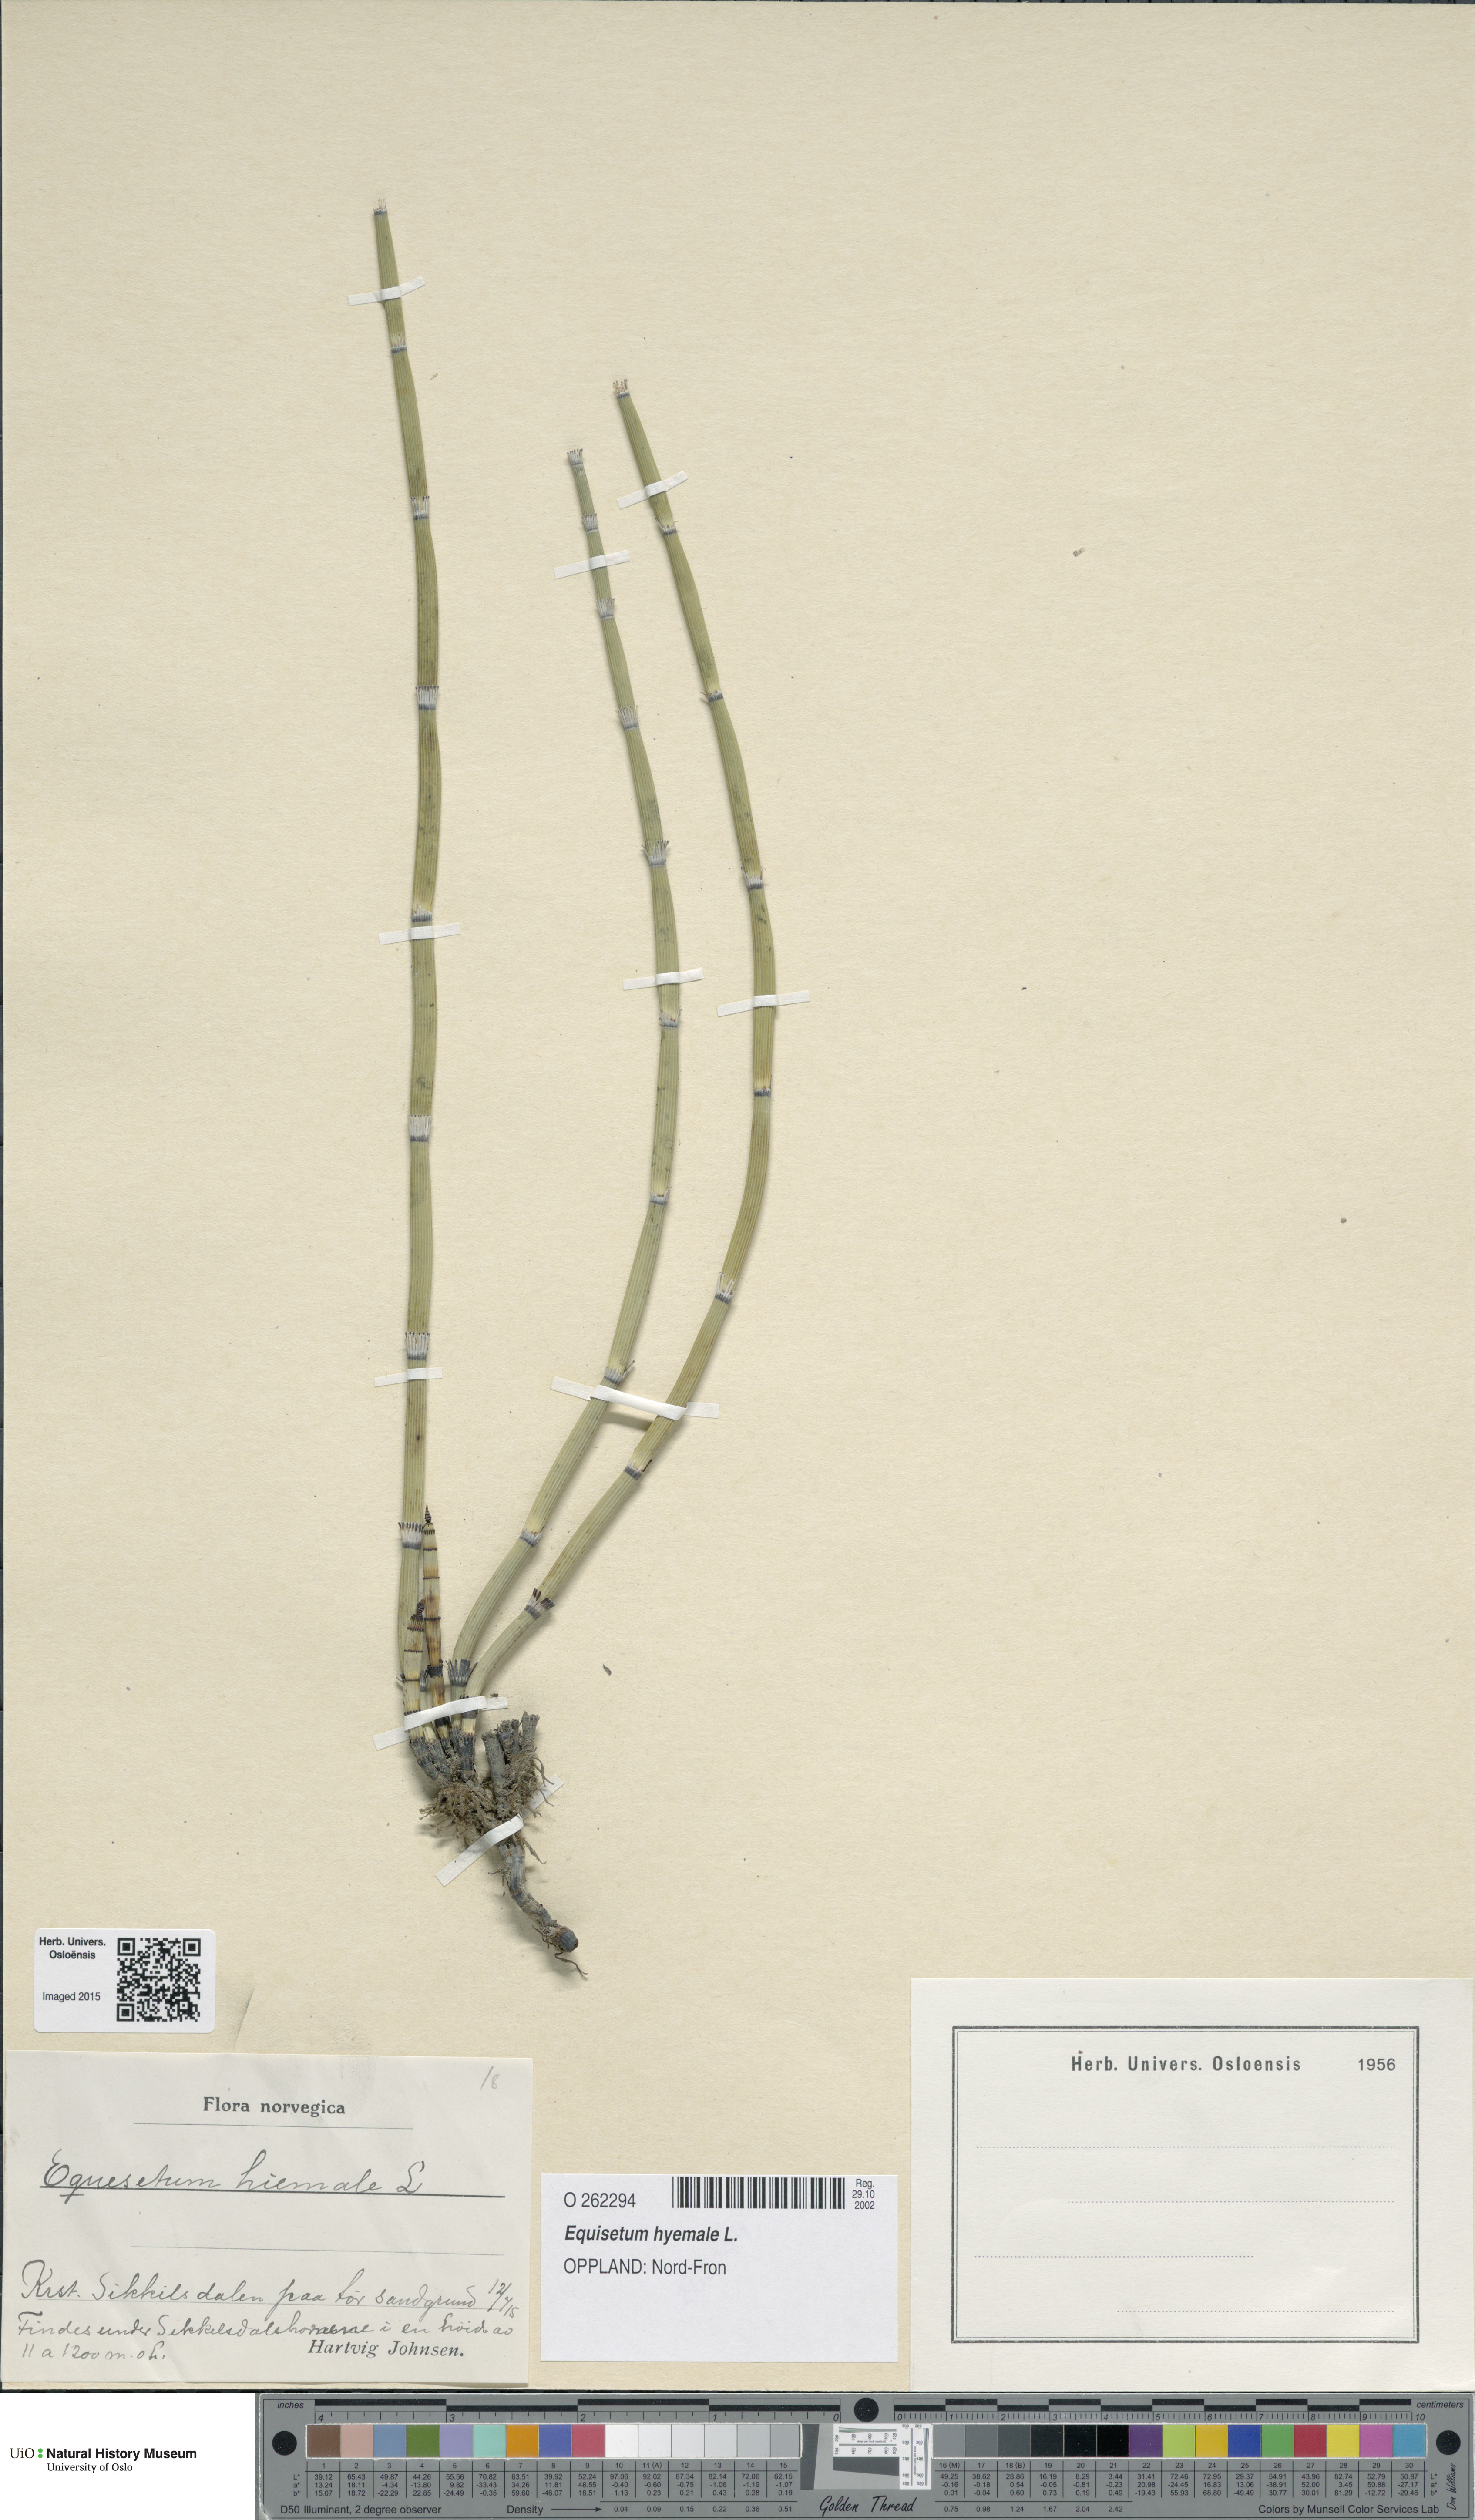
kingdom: Plantae
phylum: Tracheophyta
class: Polypodiopsida
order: Equisetales
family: Equisetaceae
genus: Equisetum
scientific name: Equisetum hyemale
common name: Rough horsetail
